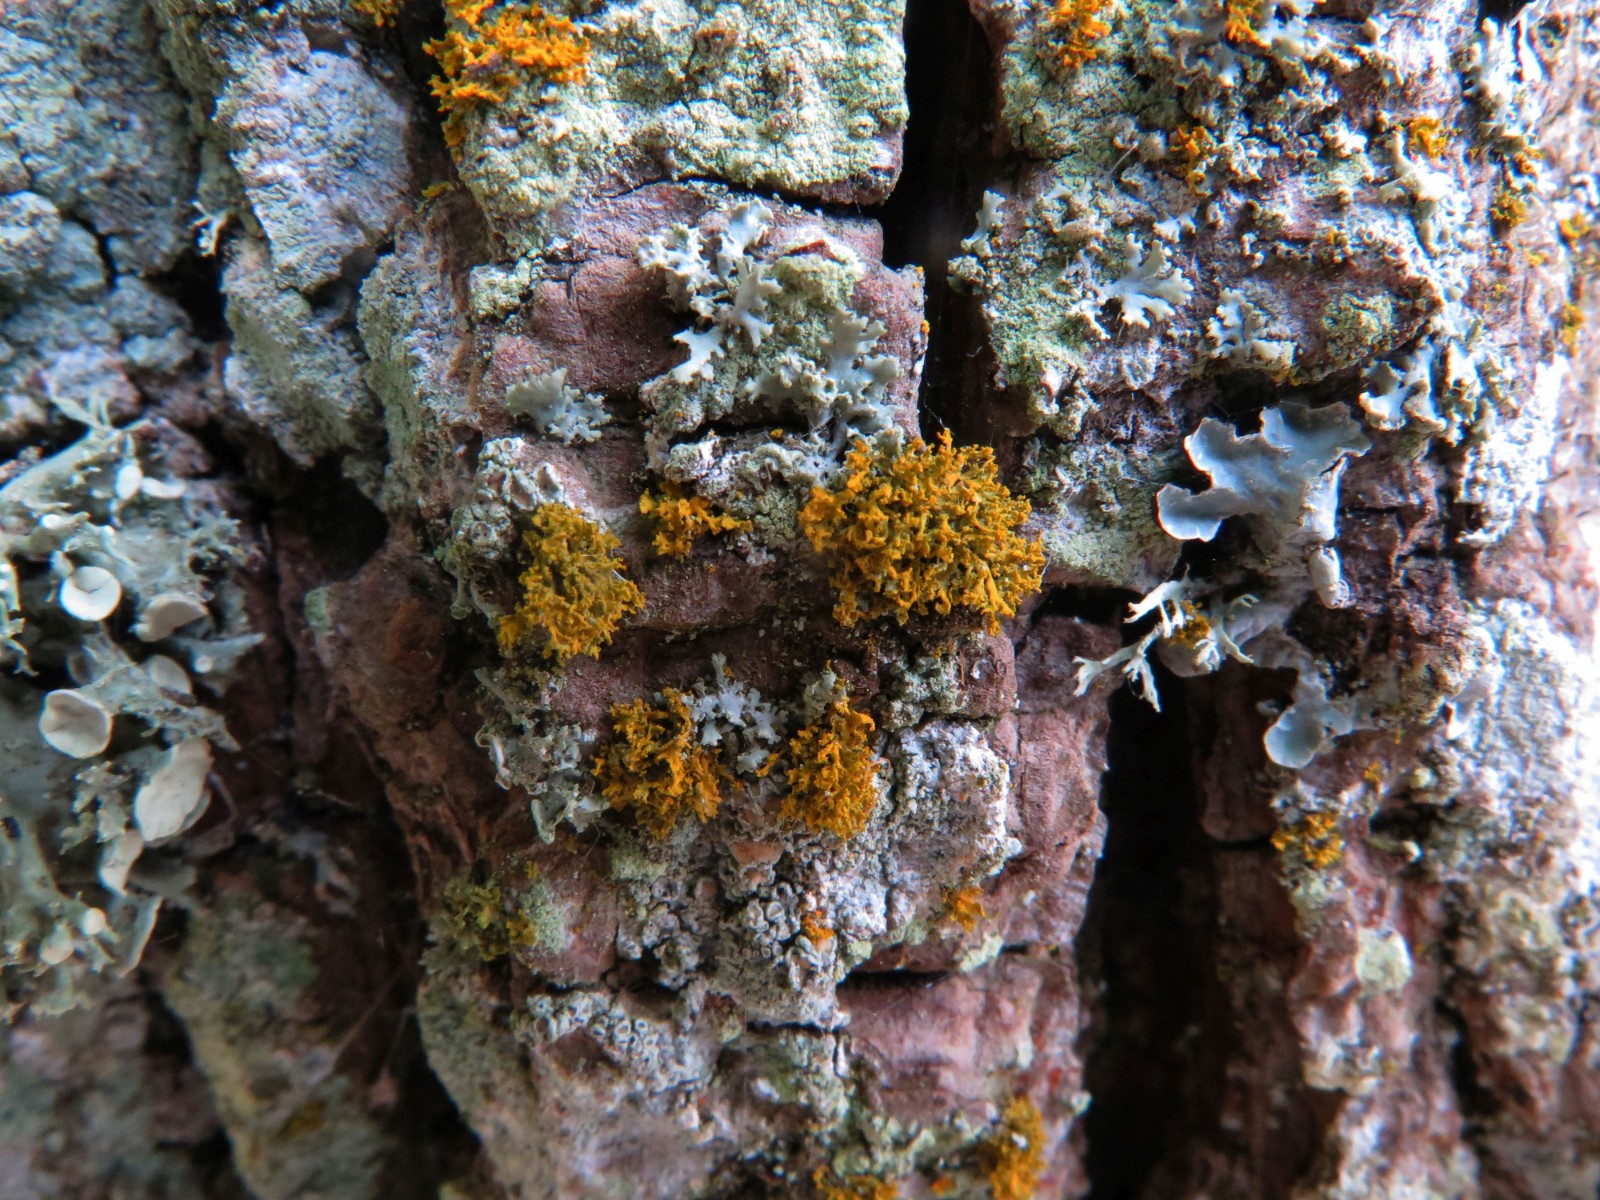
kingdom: Fungi
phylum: Ascomycota
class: Lecanoromycetes
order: Teloschistales
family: Teloschistaceae
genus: Polycauliona
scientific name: Polycauliona candelaria
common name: tue-orangelav
